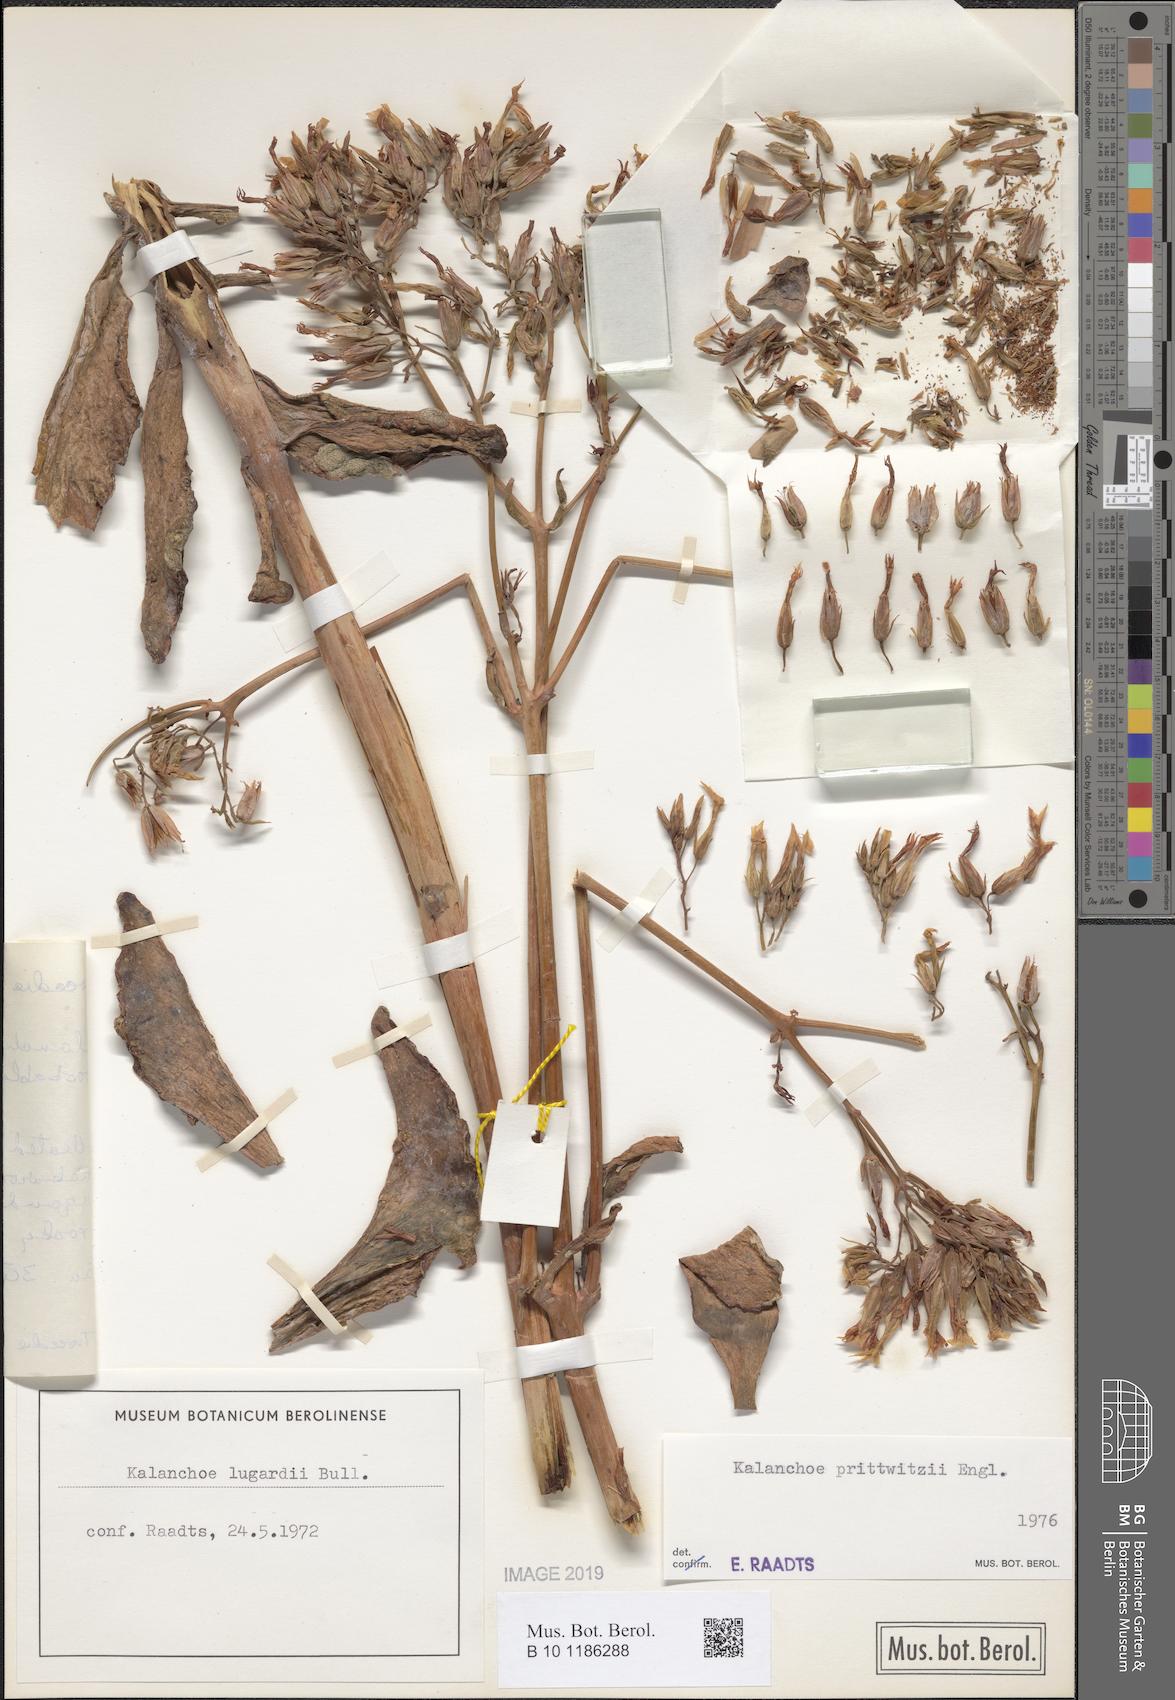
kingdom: Plantae
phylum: Tracheophyta
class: Magnoliopsida
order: Saxifragales
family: Crassulaceae
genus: Kalanchoe
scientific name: Kalanchoe prittwitzii
